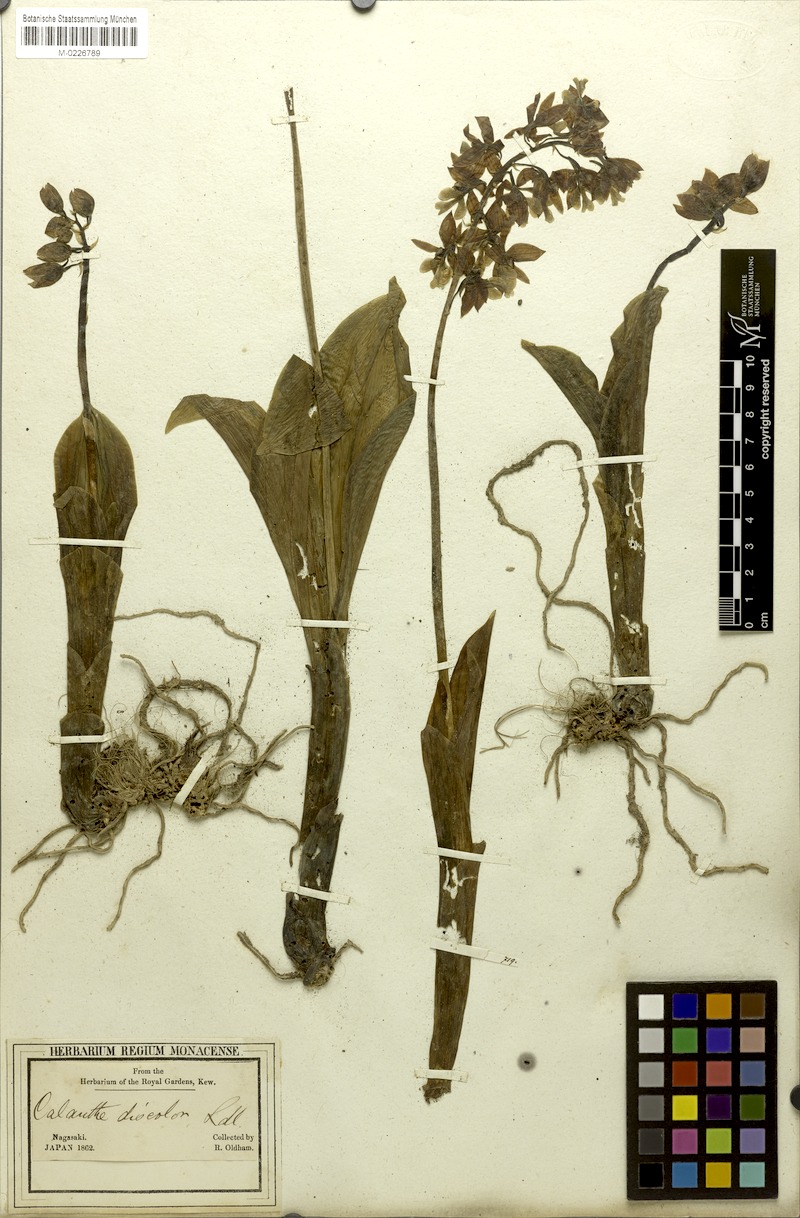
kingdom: Plantae
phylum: Tracheophyta
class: Liliopsida
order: Asparagales
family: Orchidaceae
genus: Calanthe
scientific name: Calanthe discolor
